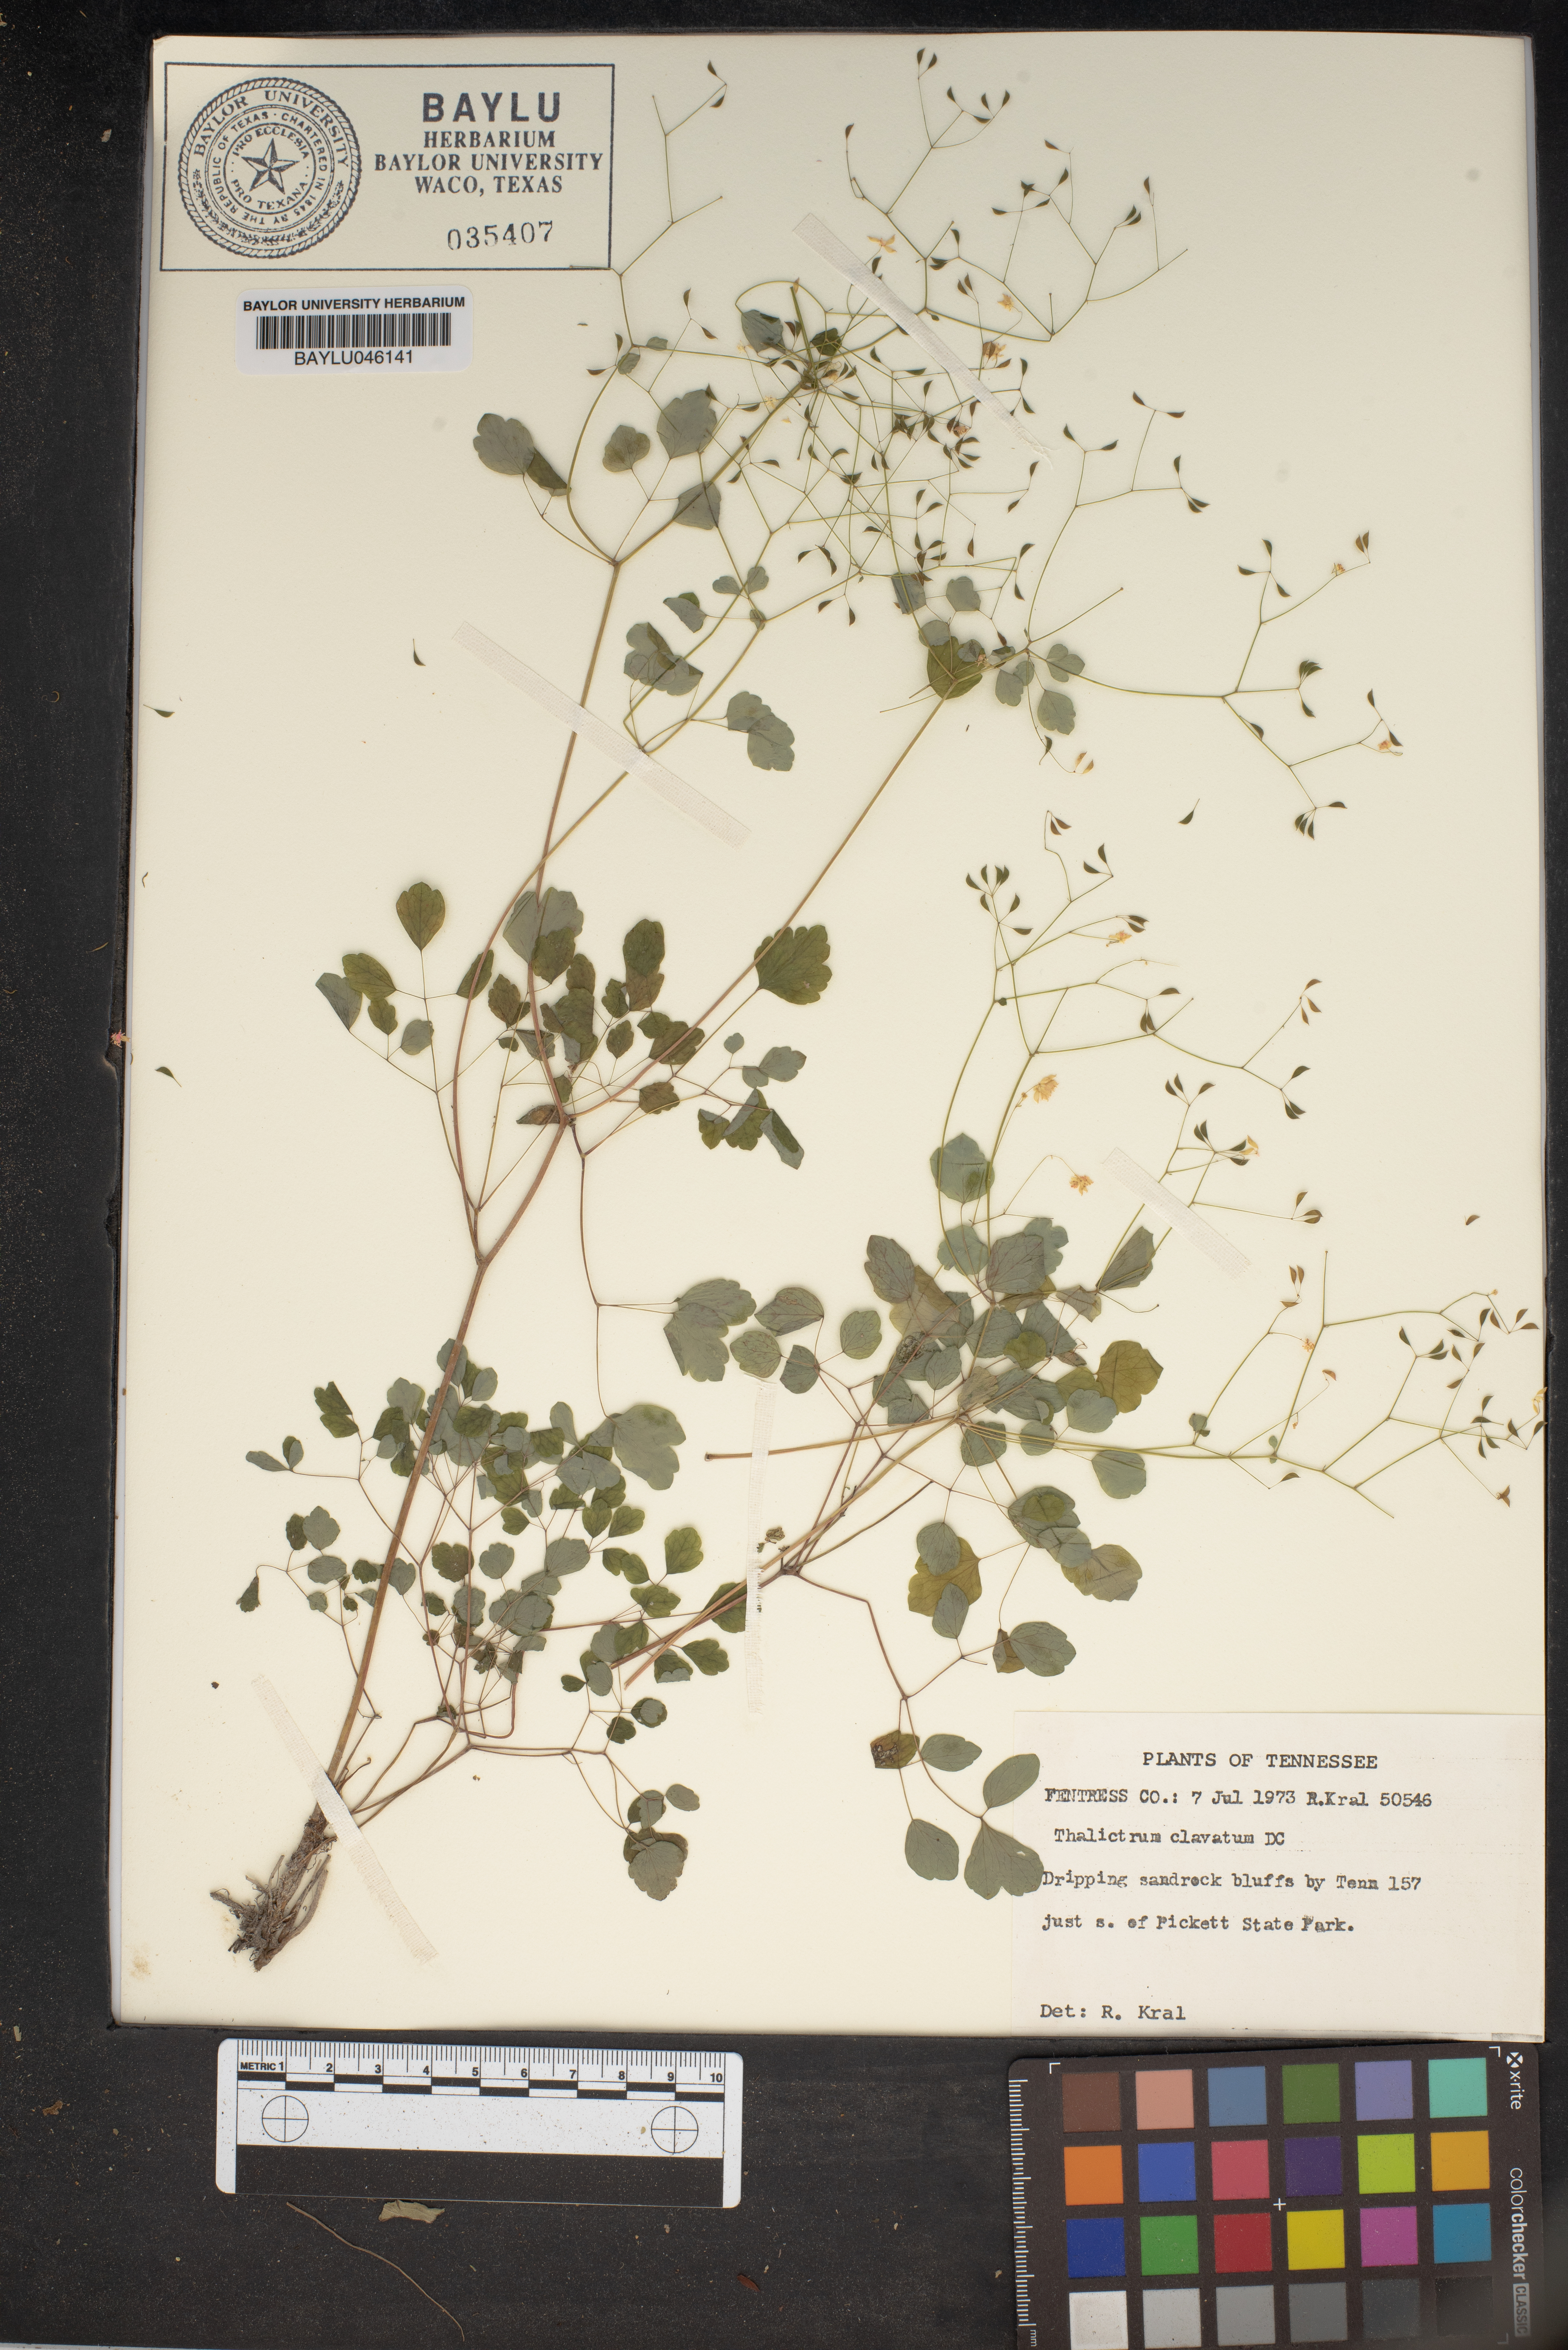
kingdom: Plantae
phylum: Tracheophyta
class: Magnoliopsida
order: Ranunculales
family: Ranunculaceae
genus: Thalictrum
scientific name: Thalictrum clavatum
